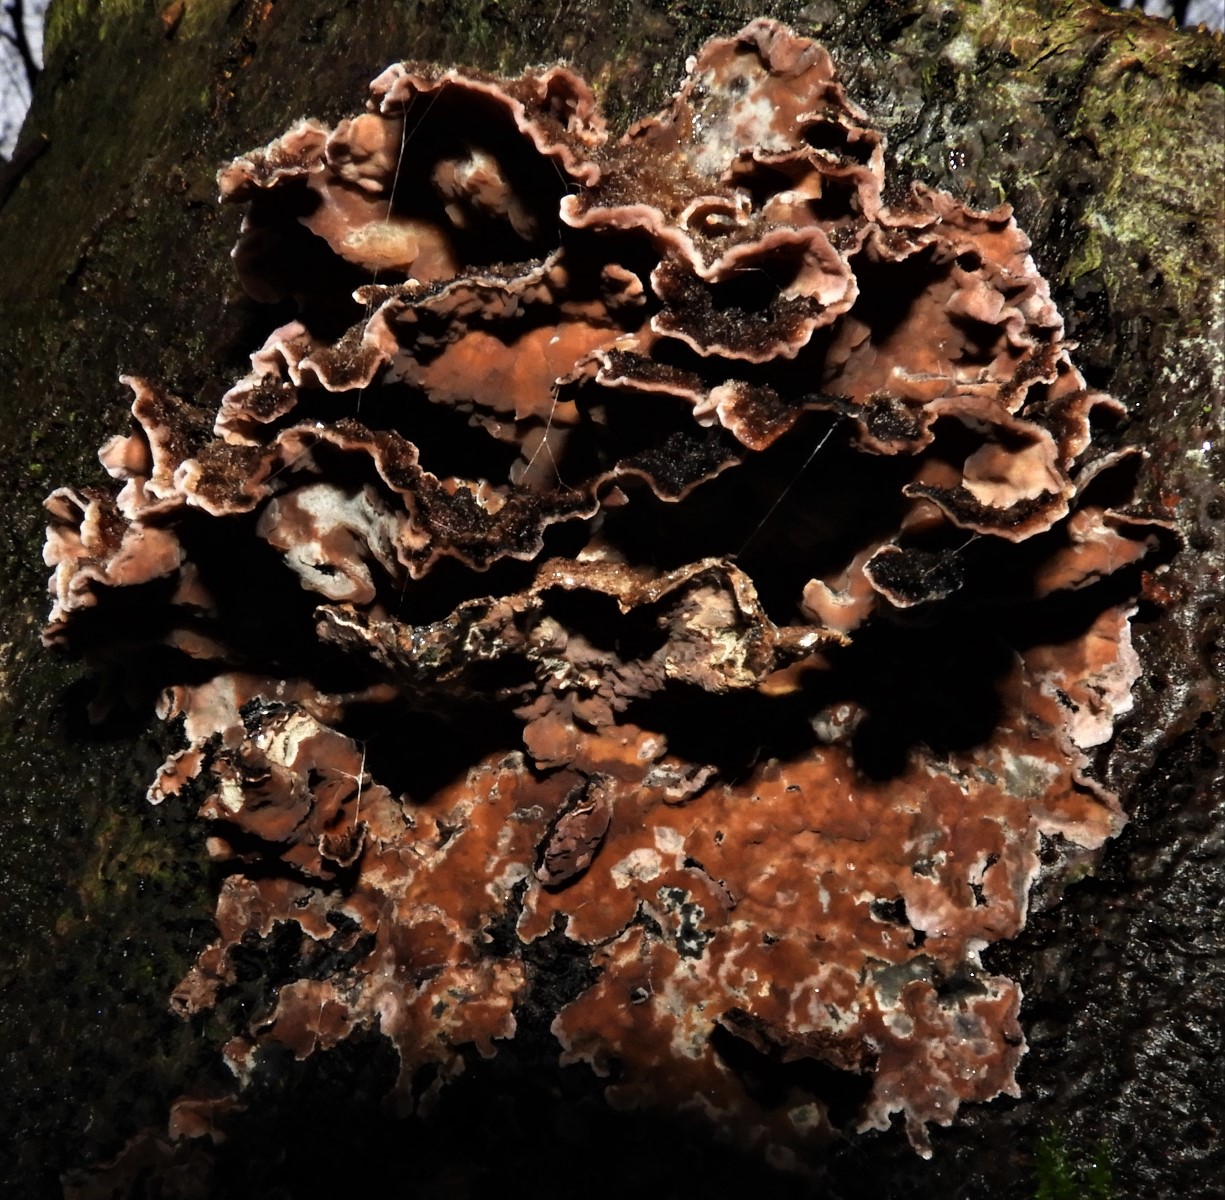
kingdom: Fungi
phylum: Basidiomycota
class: Agaricomycetes
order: Agaricales
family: Cyphellaceae
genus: Chondrostereum
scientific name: Chondrostereum purpureum
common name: purpurlædersvamp
